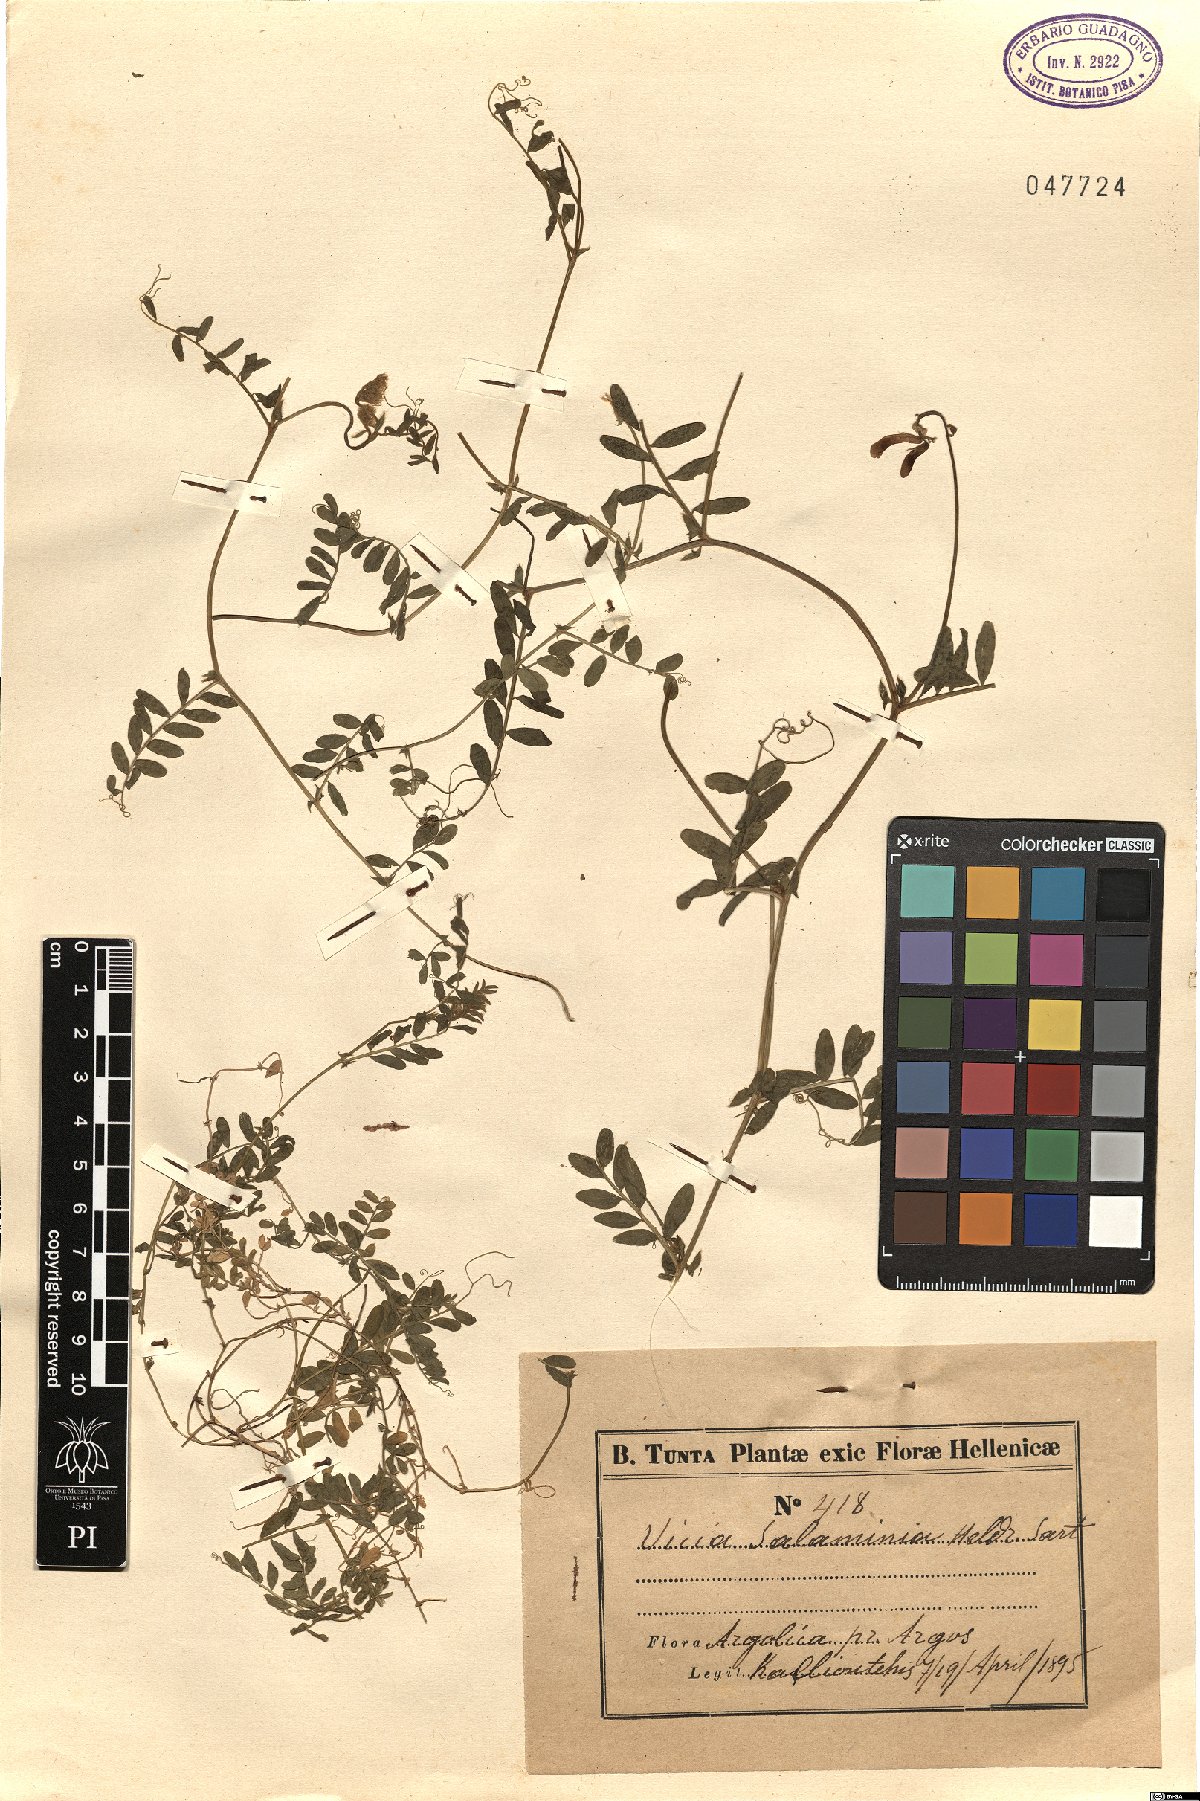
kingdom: Plantae
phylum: Tracheophyta
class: Magnoliopsida
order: Fabales
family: Fabaceae
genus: Vicia
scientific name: Vicia salaminia
